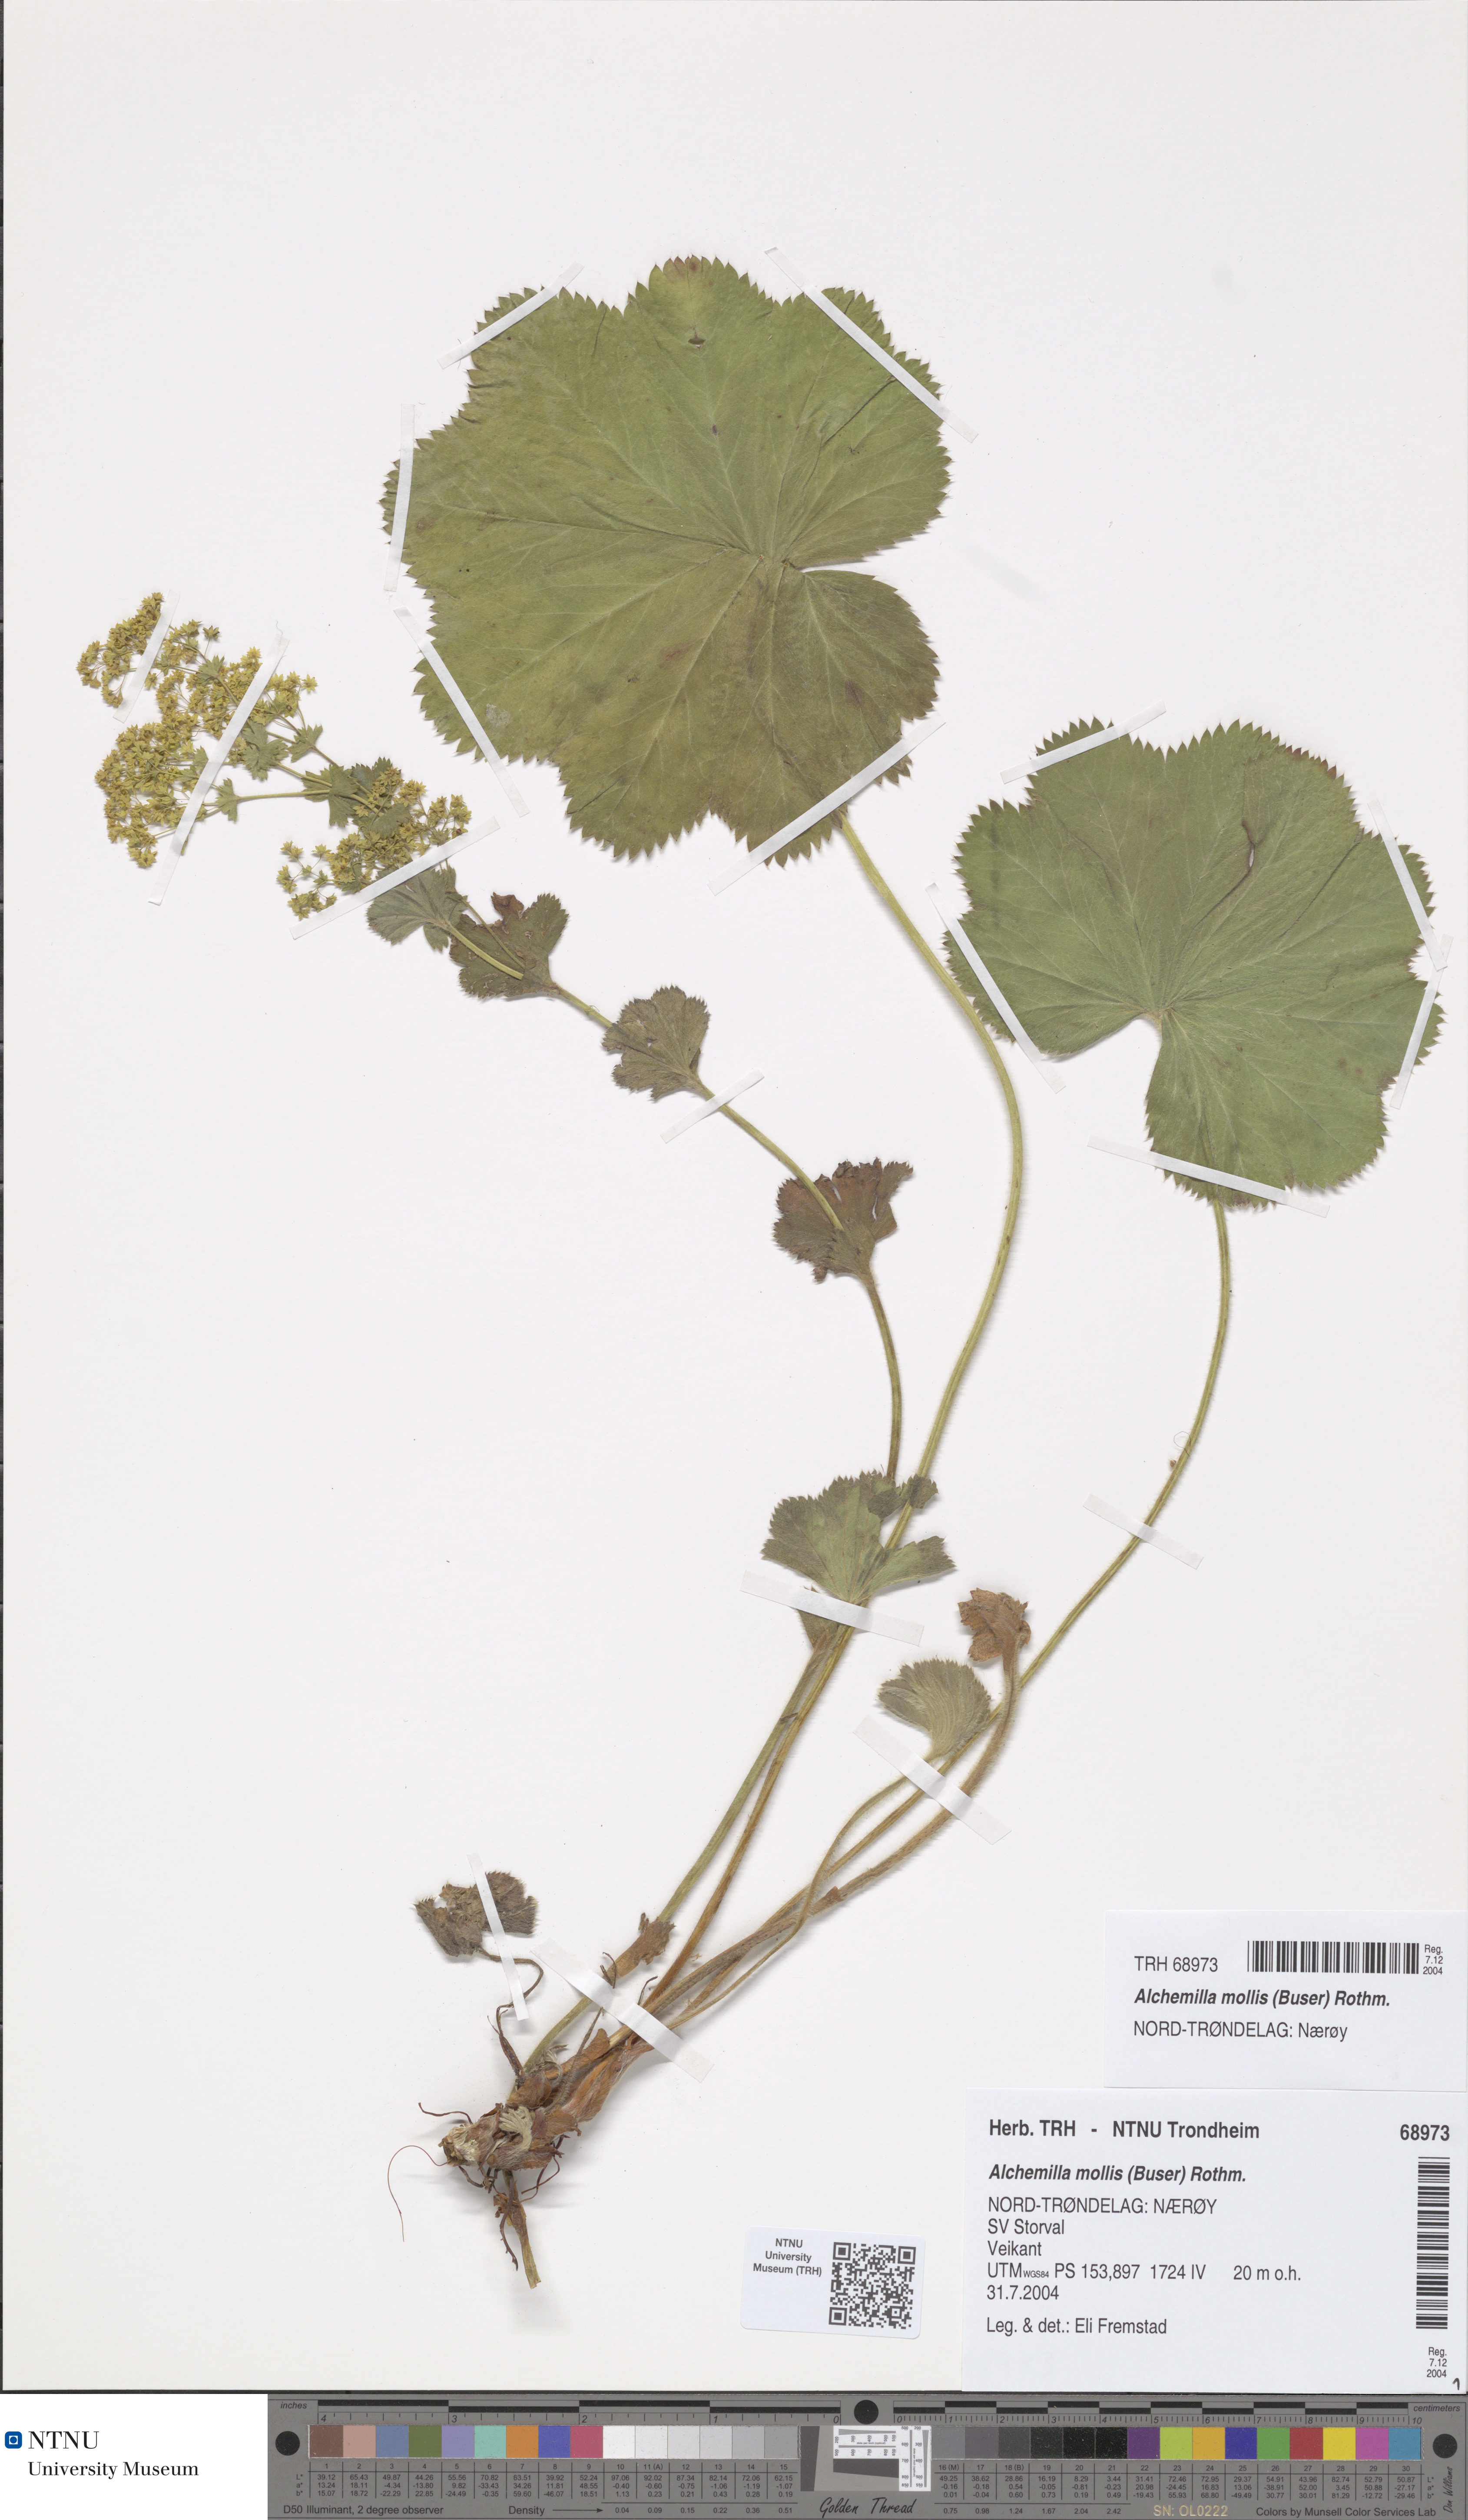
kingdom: Plantae
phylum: Tracheophyta
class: Magnoliopsida
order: Rosales
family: Rosaceae
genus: Alchemilla
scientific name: Alchemilla mollis
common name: Lady's-mantle
